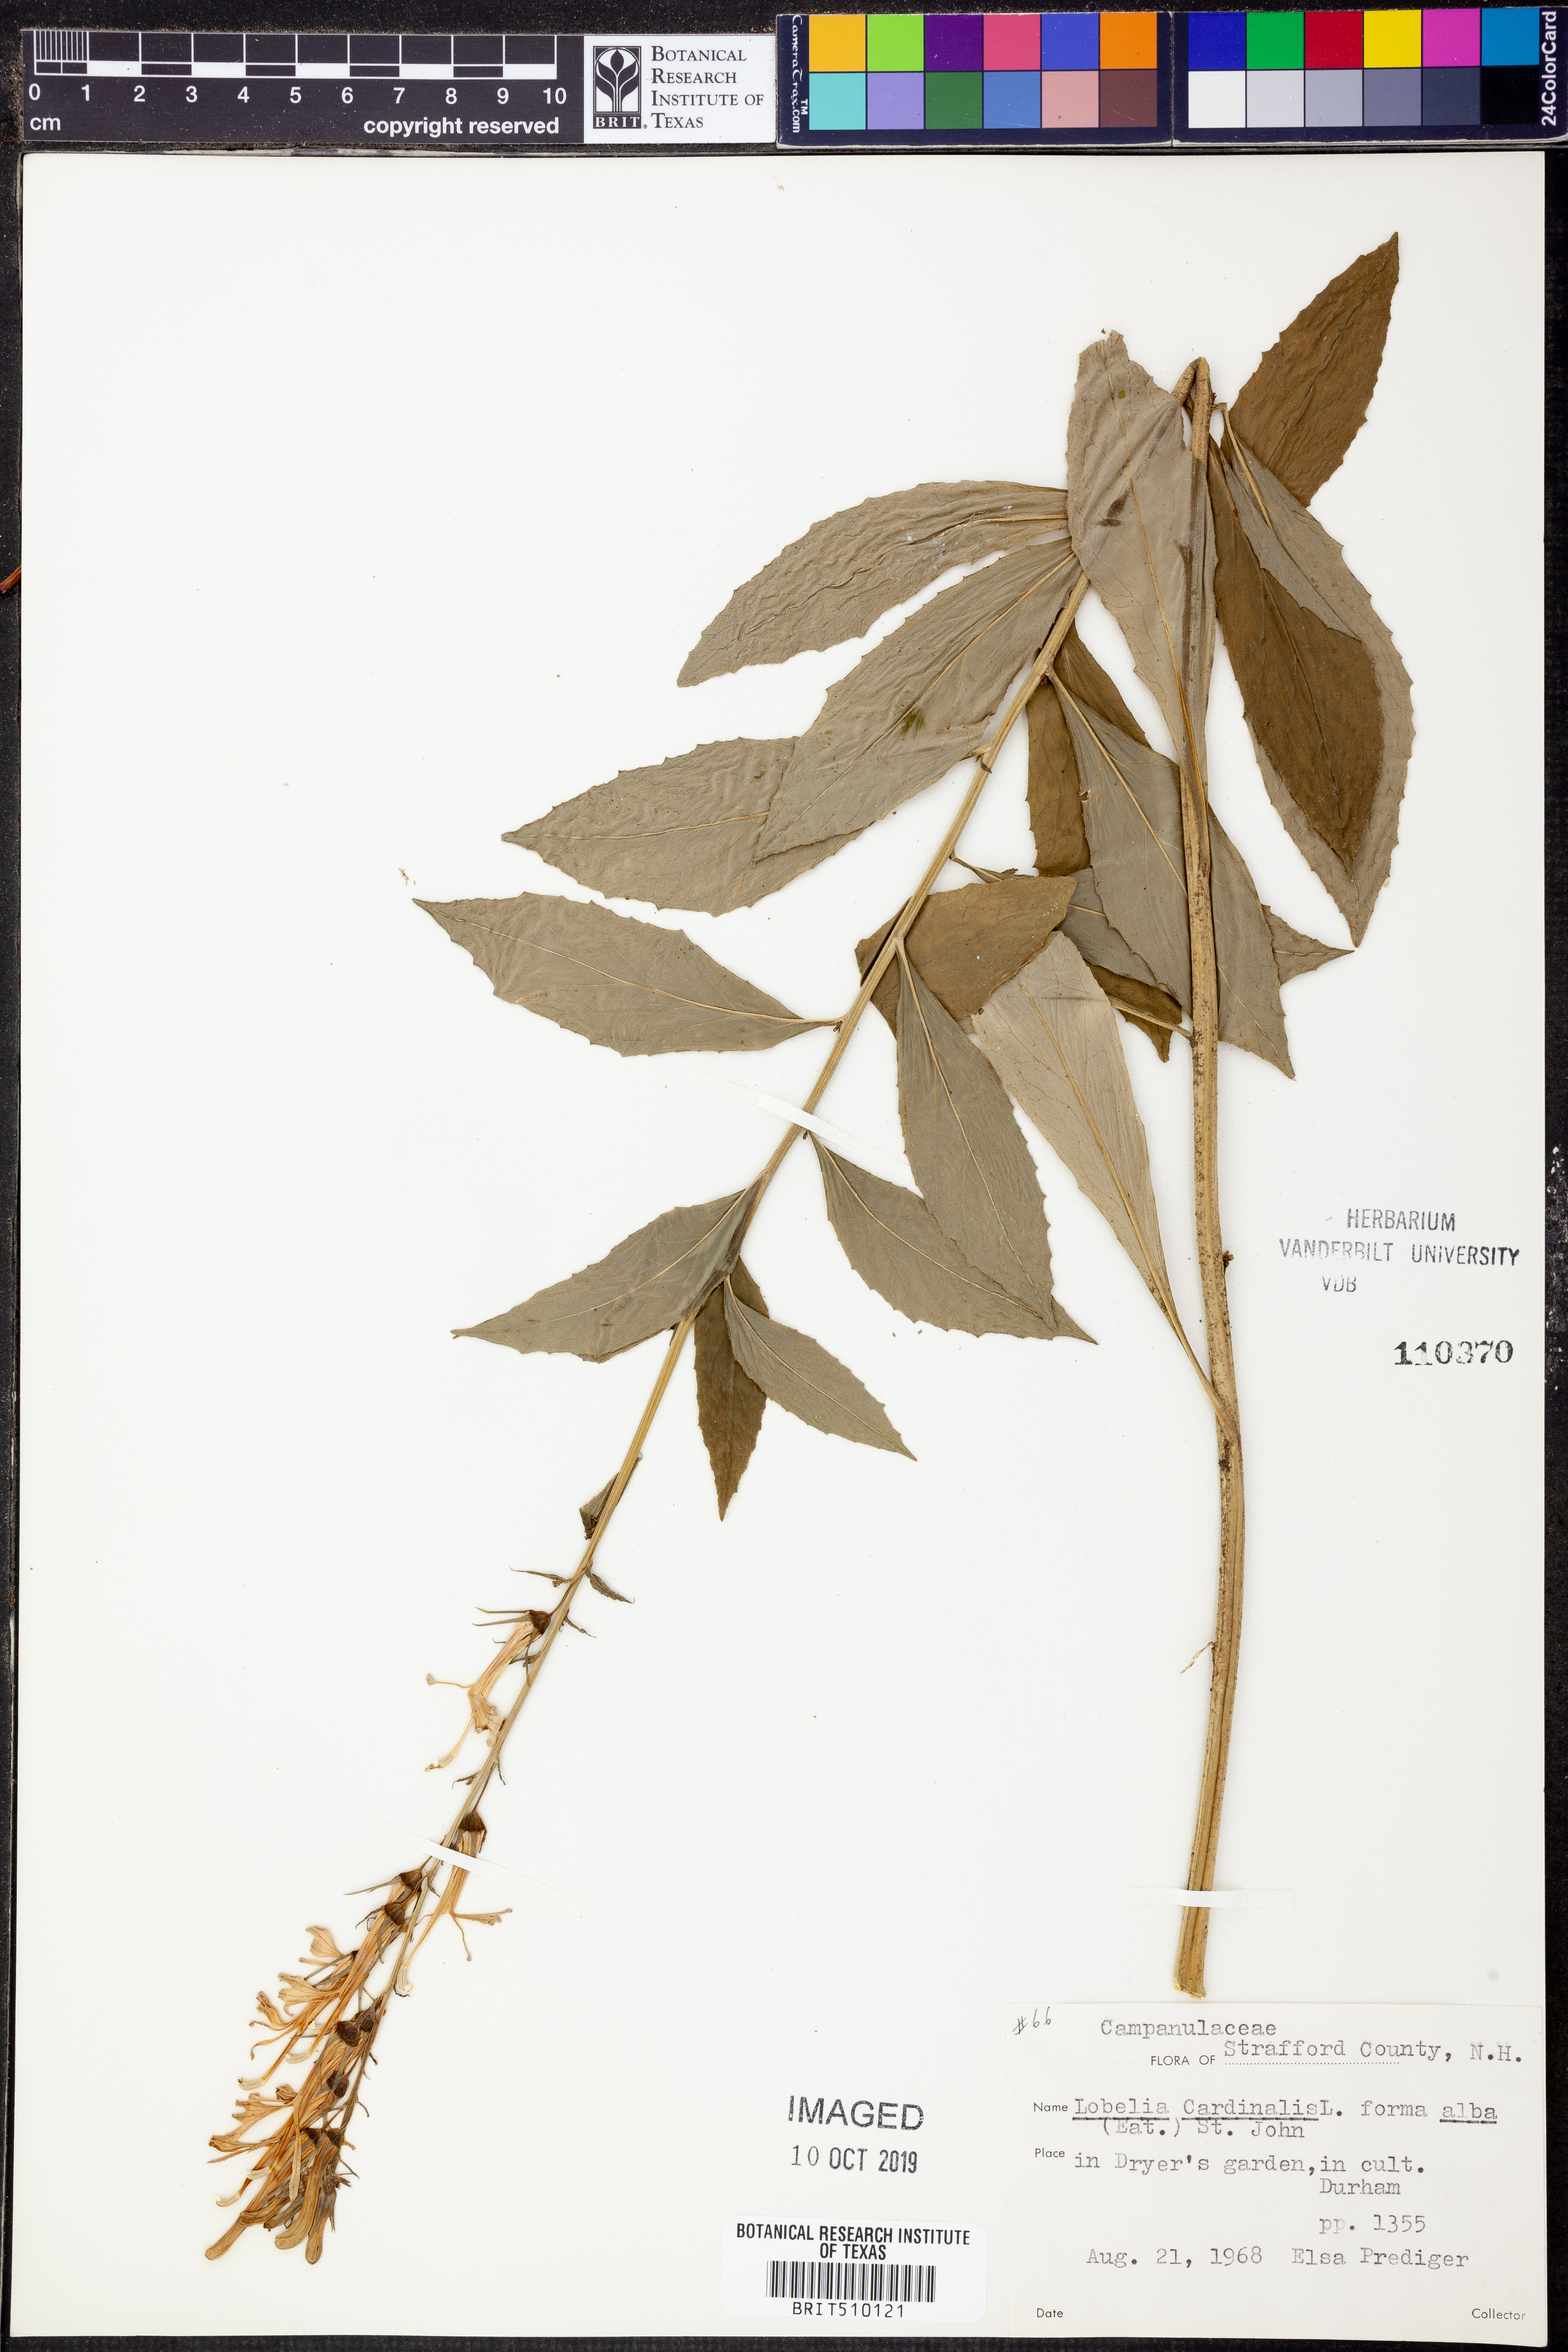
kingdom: Plantae
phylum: Tracheophyta
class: Magnoliopsida
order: Asterales
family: Campanulaceae
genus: Lobelia
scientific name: Lobelia cardinalis
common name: Cardinal flower
